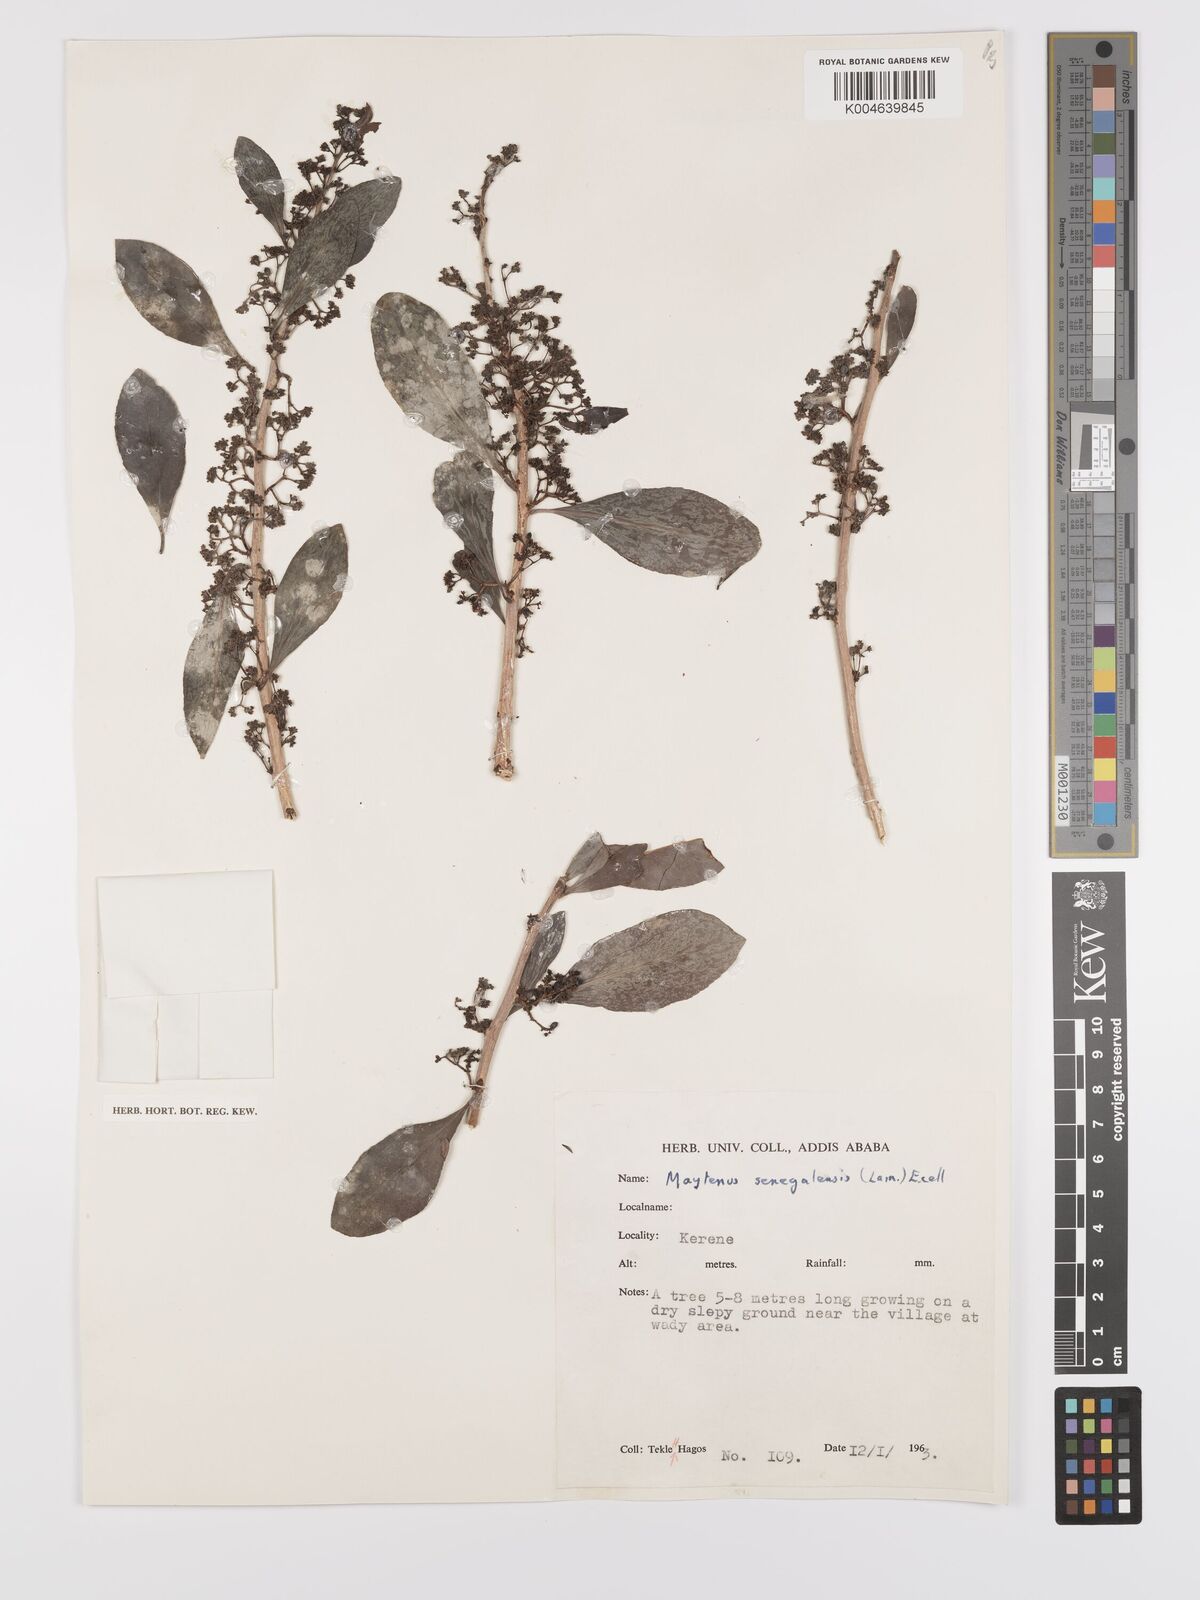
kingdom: Plantae
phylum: Tracheophyta
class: Magnoliopsida
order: Celastrales
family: Celastraceae
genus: Gymnosporia
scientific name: Gymnosporia senegalensis
